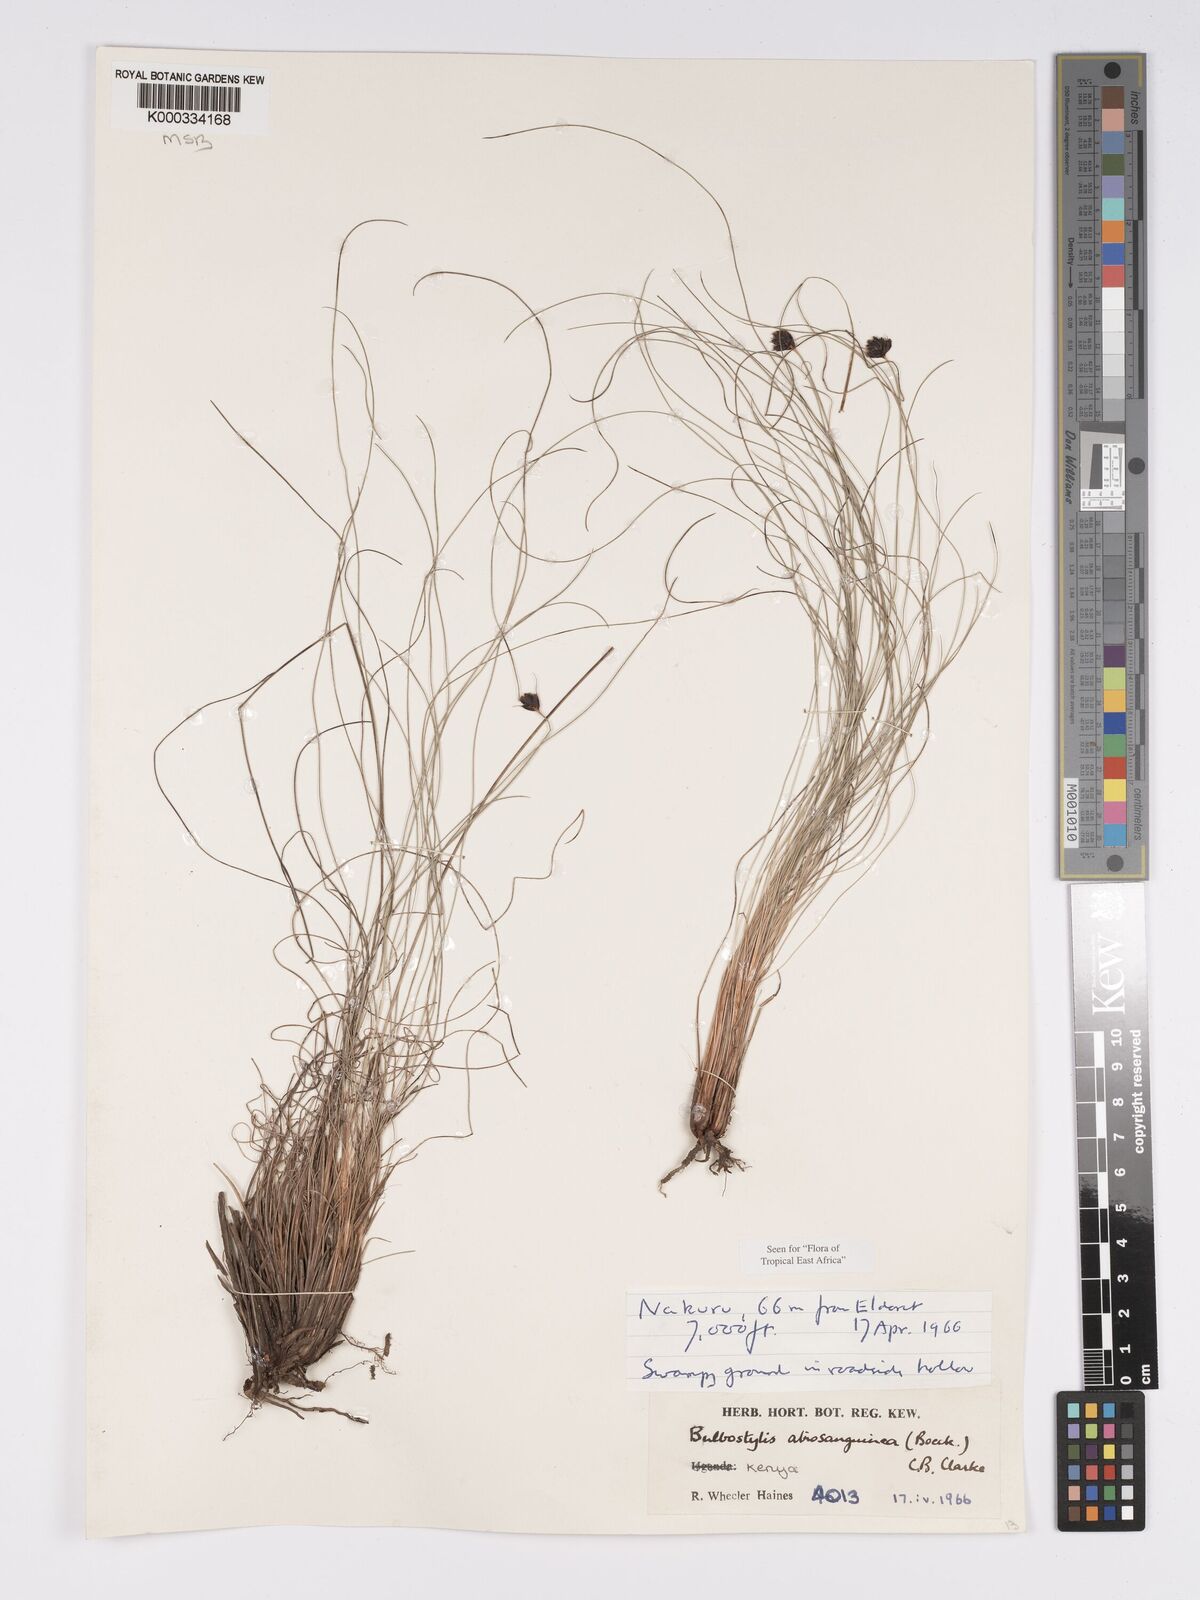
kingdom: Plantae
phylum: Tracheophyta
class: Liliopsida
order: Poales
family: Cyperaceae
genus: Bulbostylis
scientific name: Bulbostylis atrosanguinea
